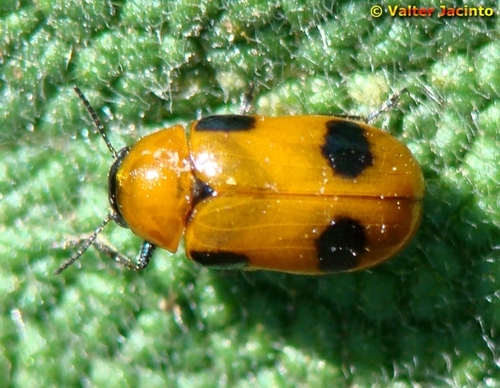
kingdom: Animalia
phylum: Arthropoda
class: Insecta
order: Coleoptera
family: Chrysomelidae
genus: Coptocephala
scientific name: Coptocephala scopolina
